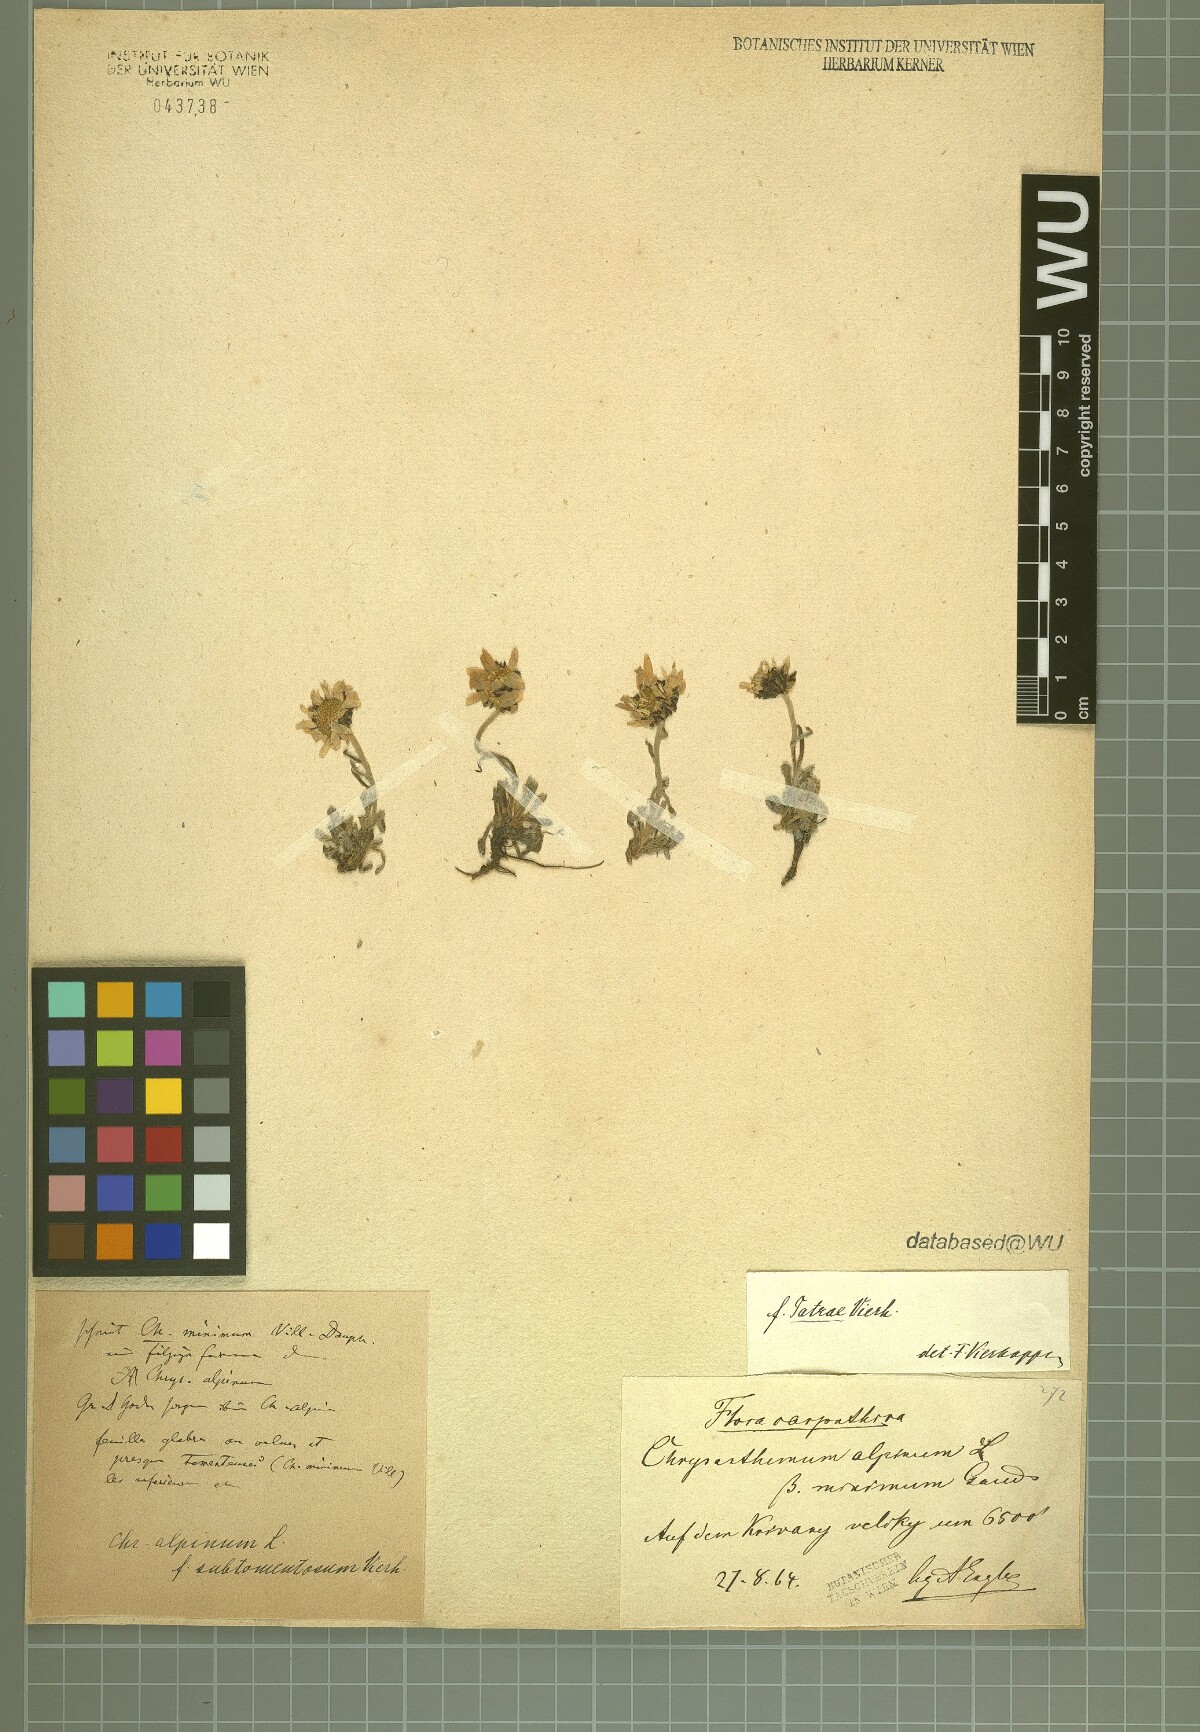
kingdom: Plantae
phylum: Tracheophyta
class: Magnoliopsida
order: Asterales
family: Asteraceae
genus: Leucanthemopsis
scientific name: Leucanthemopsis alpina
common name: Alpine moon daisy
